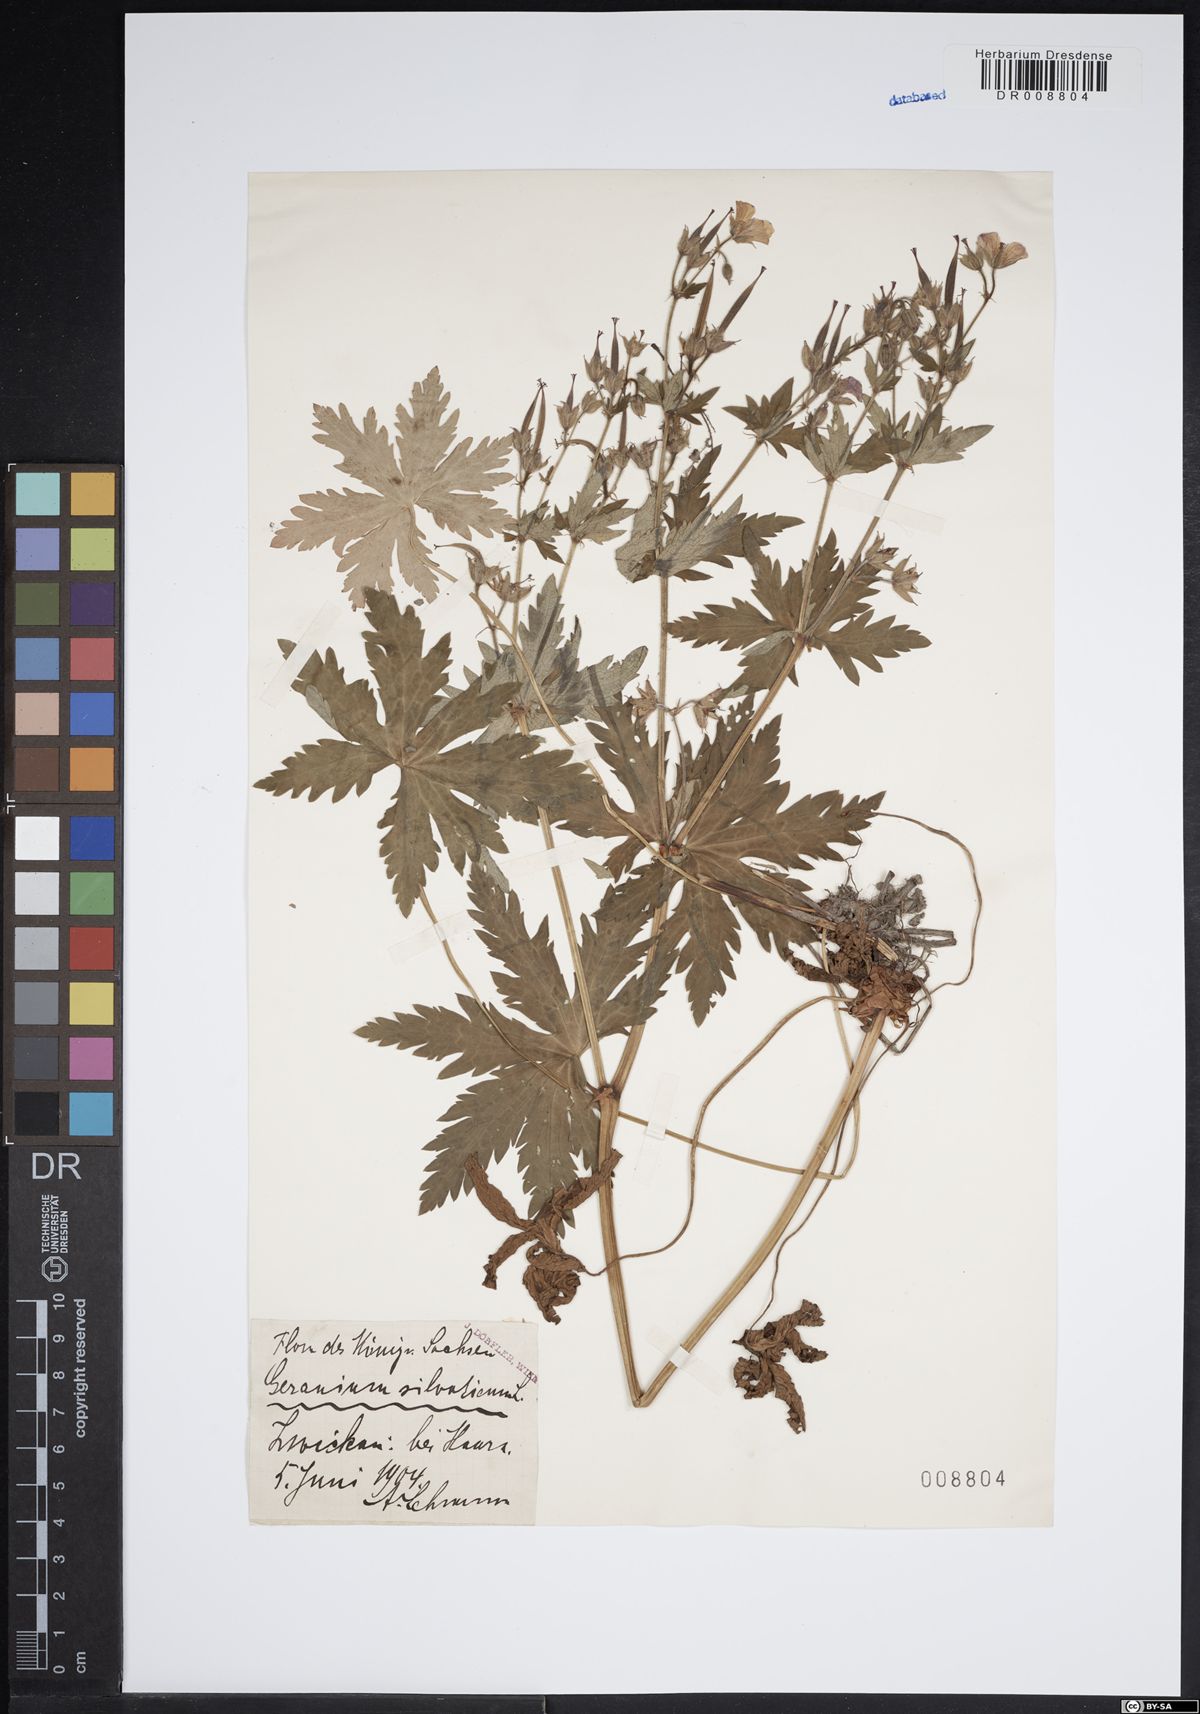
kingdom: Plantae
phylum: Tracheophyta
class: Magnoliopsida
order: Geraniales
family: Geraniaceae
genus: Geranium
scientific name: Geranium sylvaticum
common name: Wood crane's-bill
